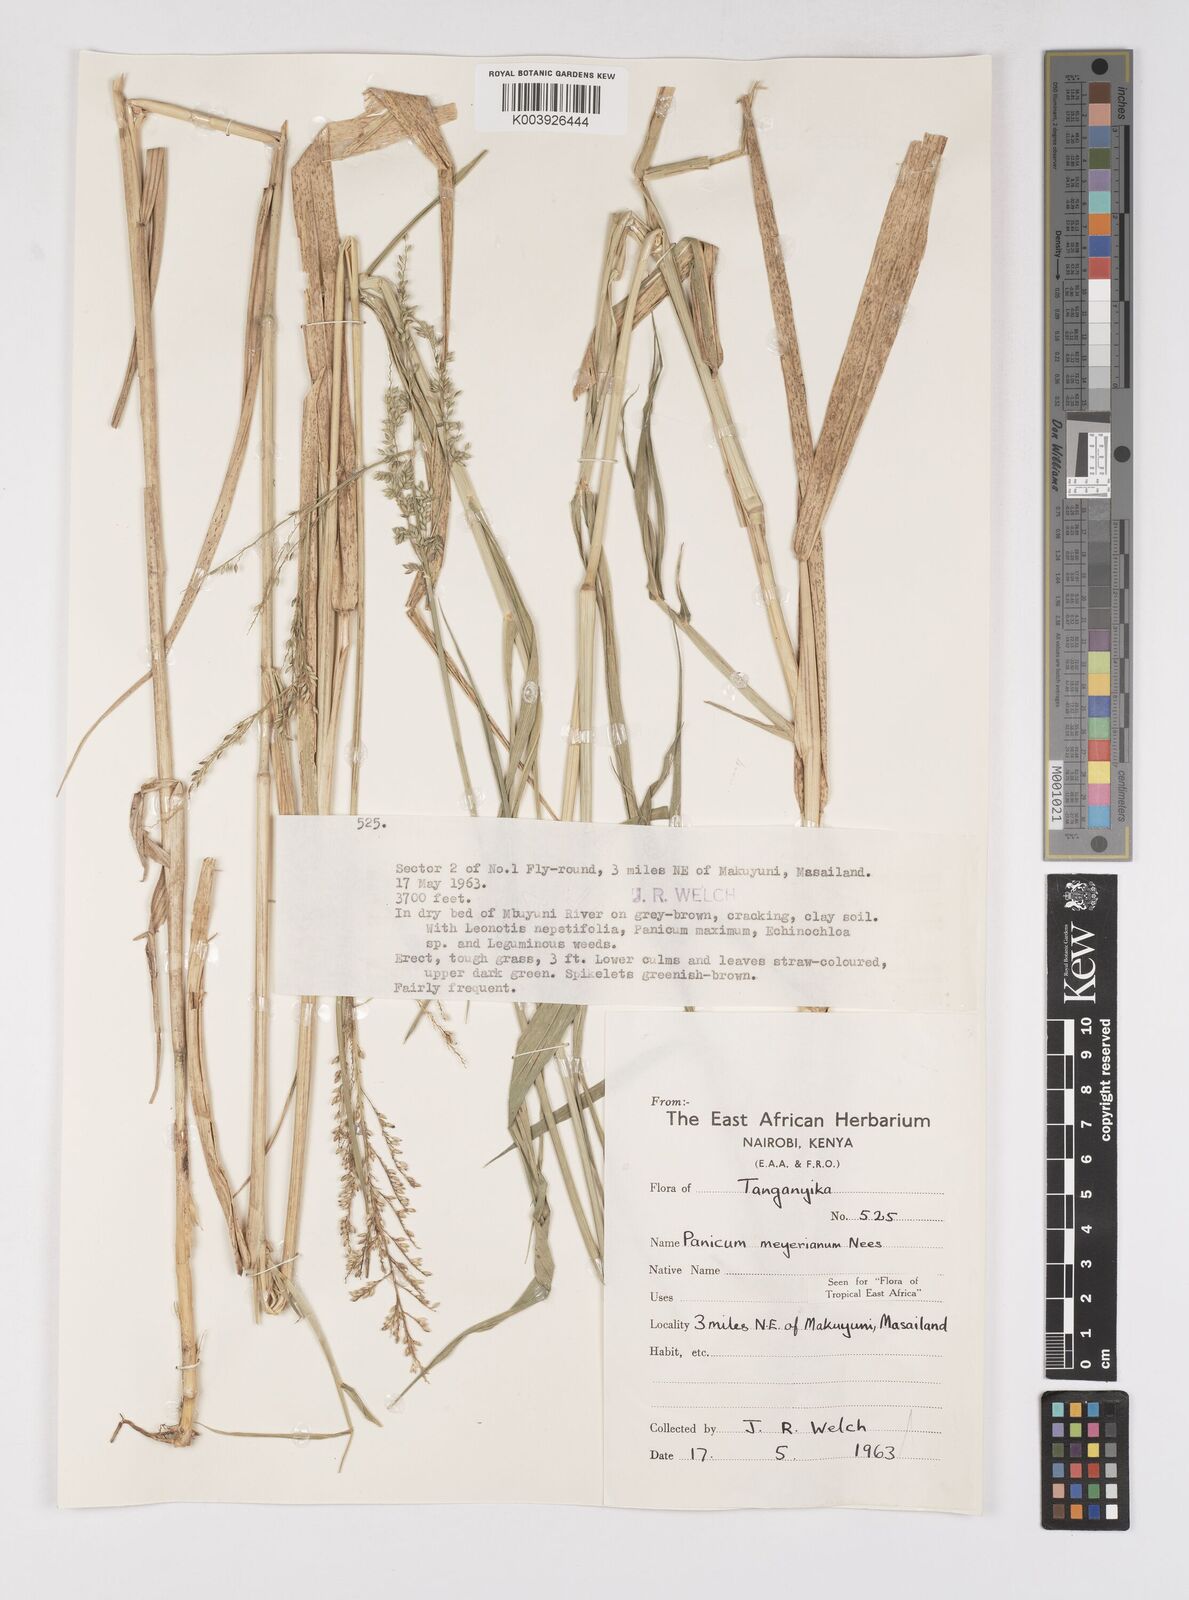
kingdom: Plantae
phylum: Tracheophyta
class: Liliopsida
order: Poales
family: Poaceae
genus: Eriochloa
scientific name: Eriochloa meyeriana
